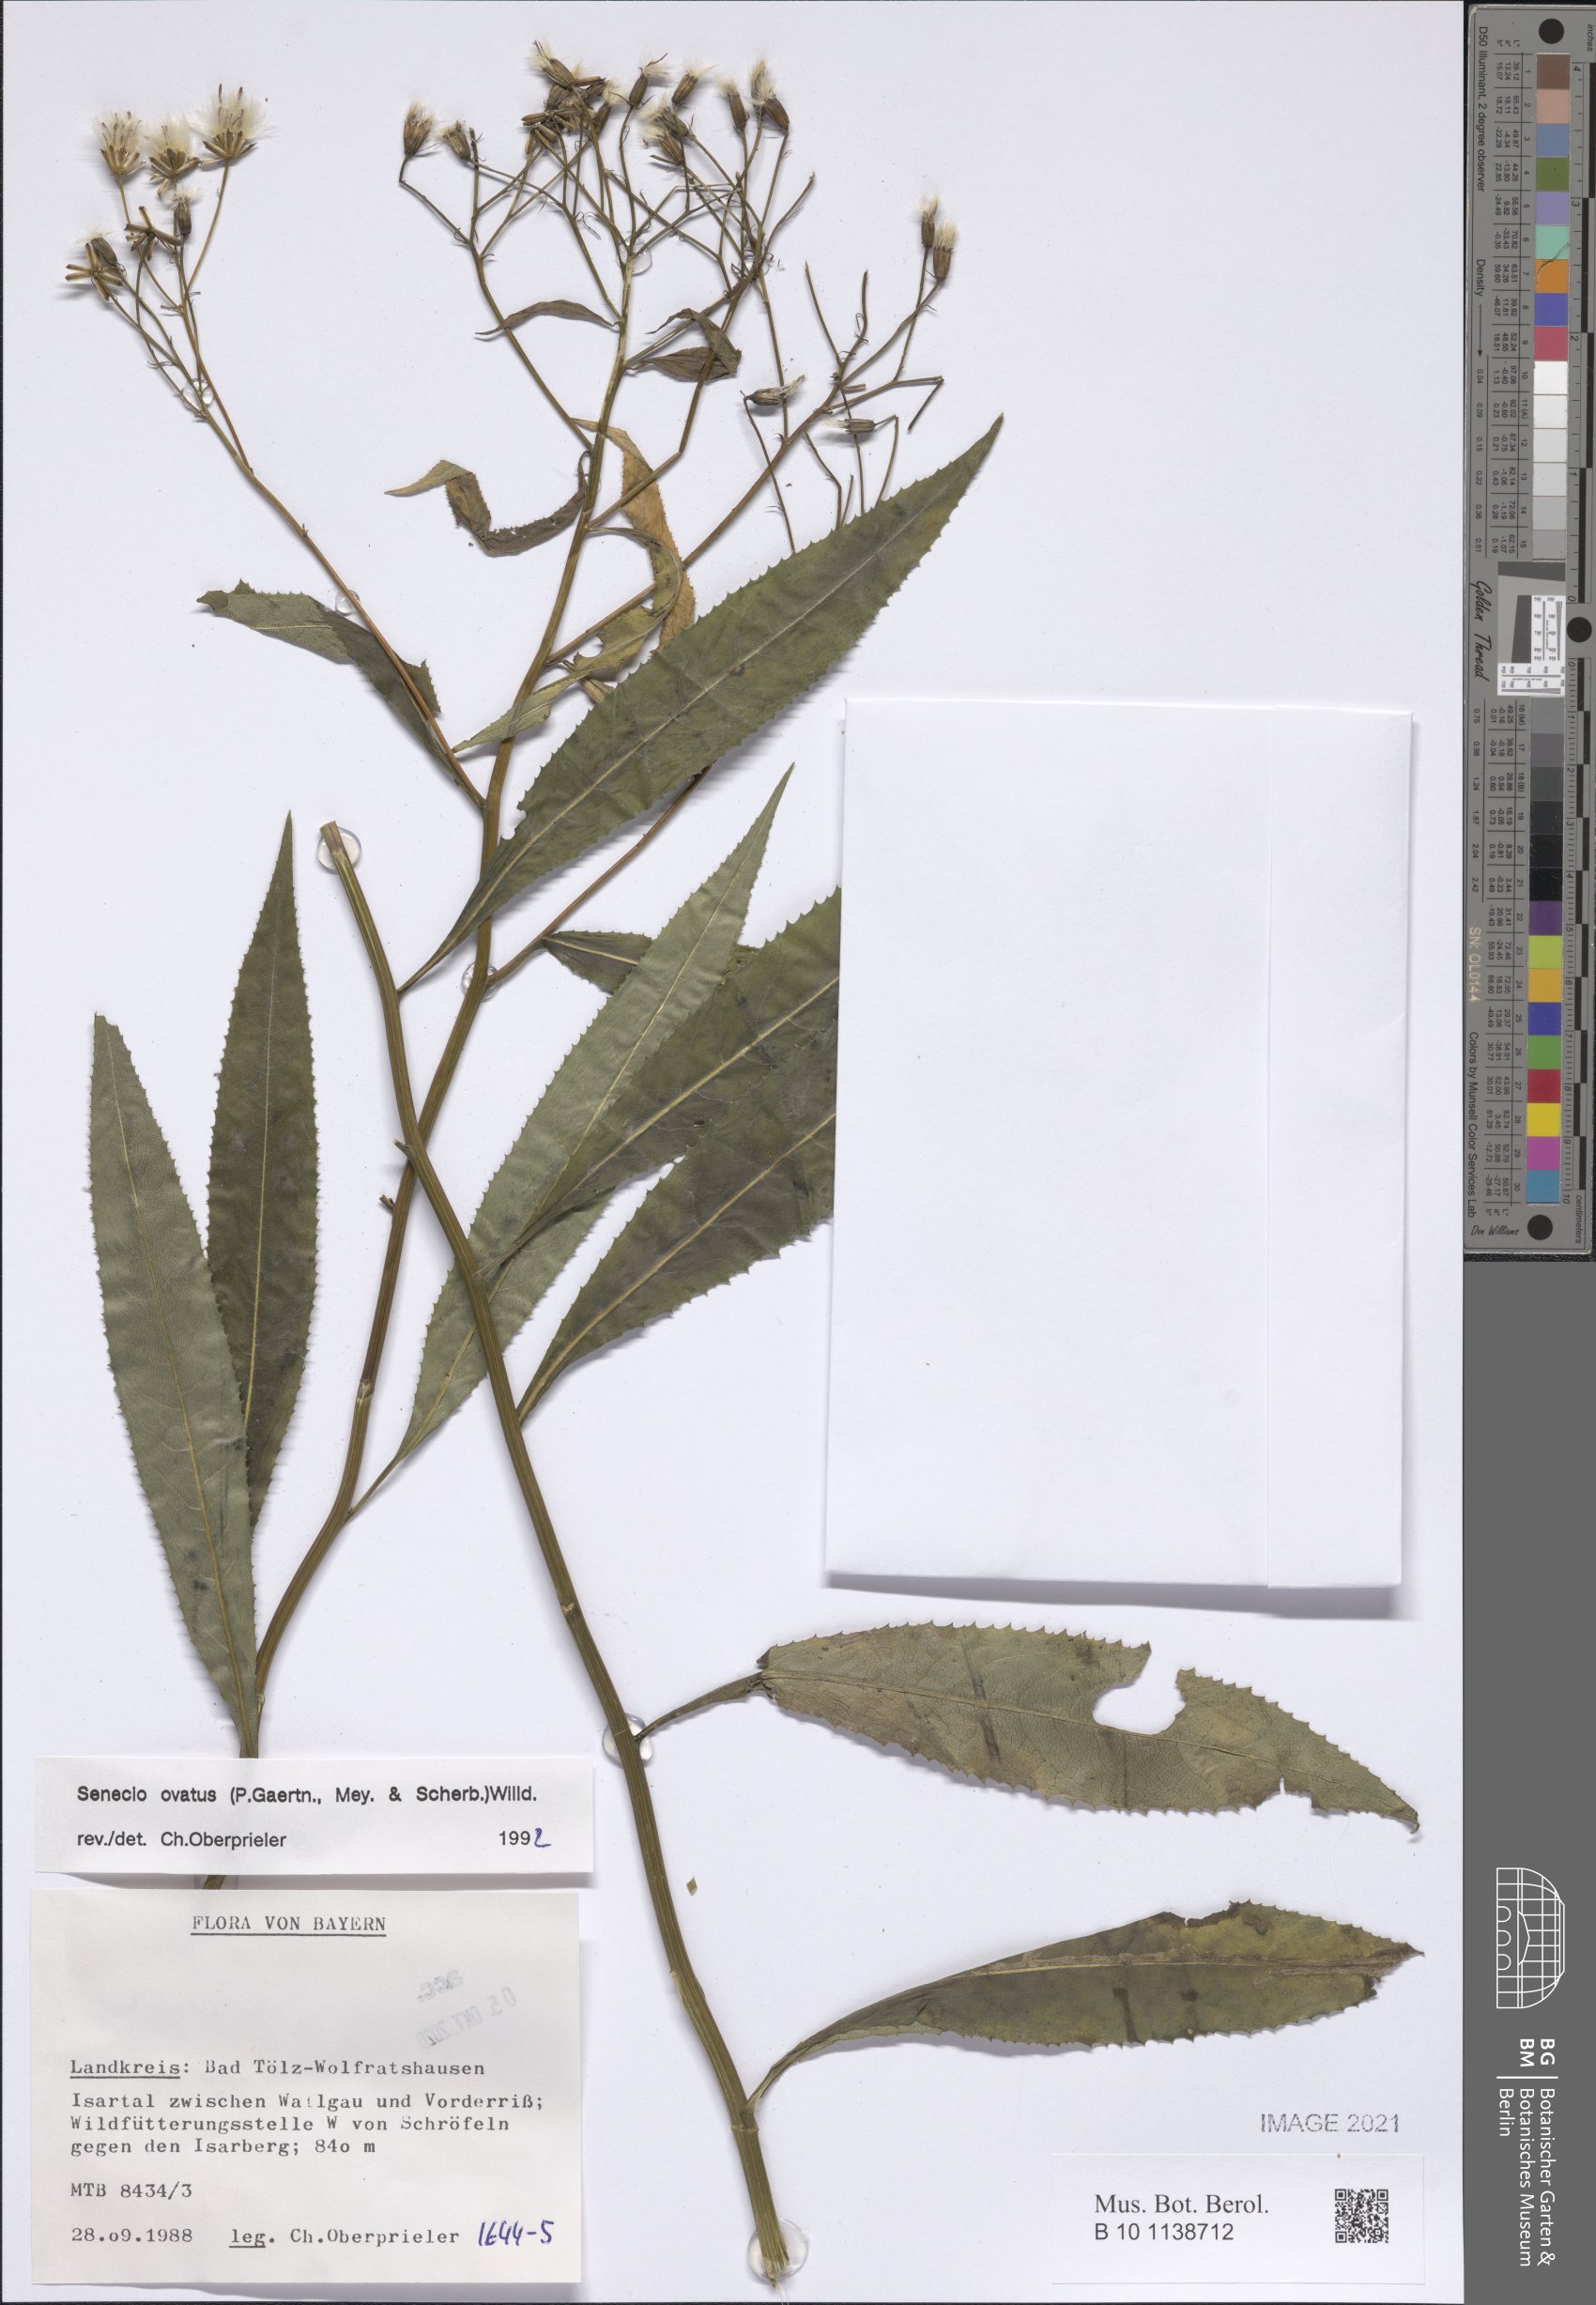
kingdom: Plantae
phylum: Tracheophyta
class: Magnoliopsida
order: Asterales
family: Asteraceae
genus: Senecio
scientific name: Senecio ovatus
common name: Wood ragwort
